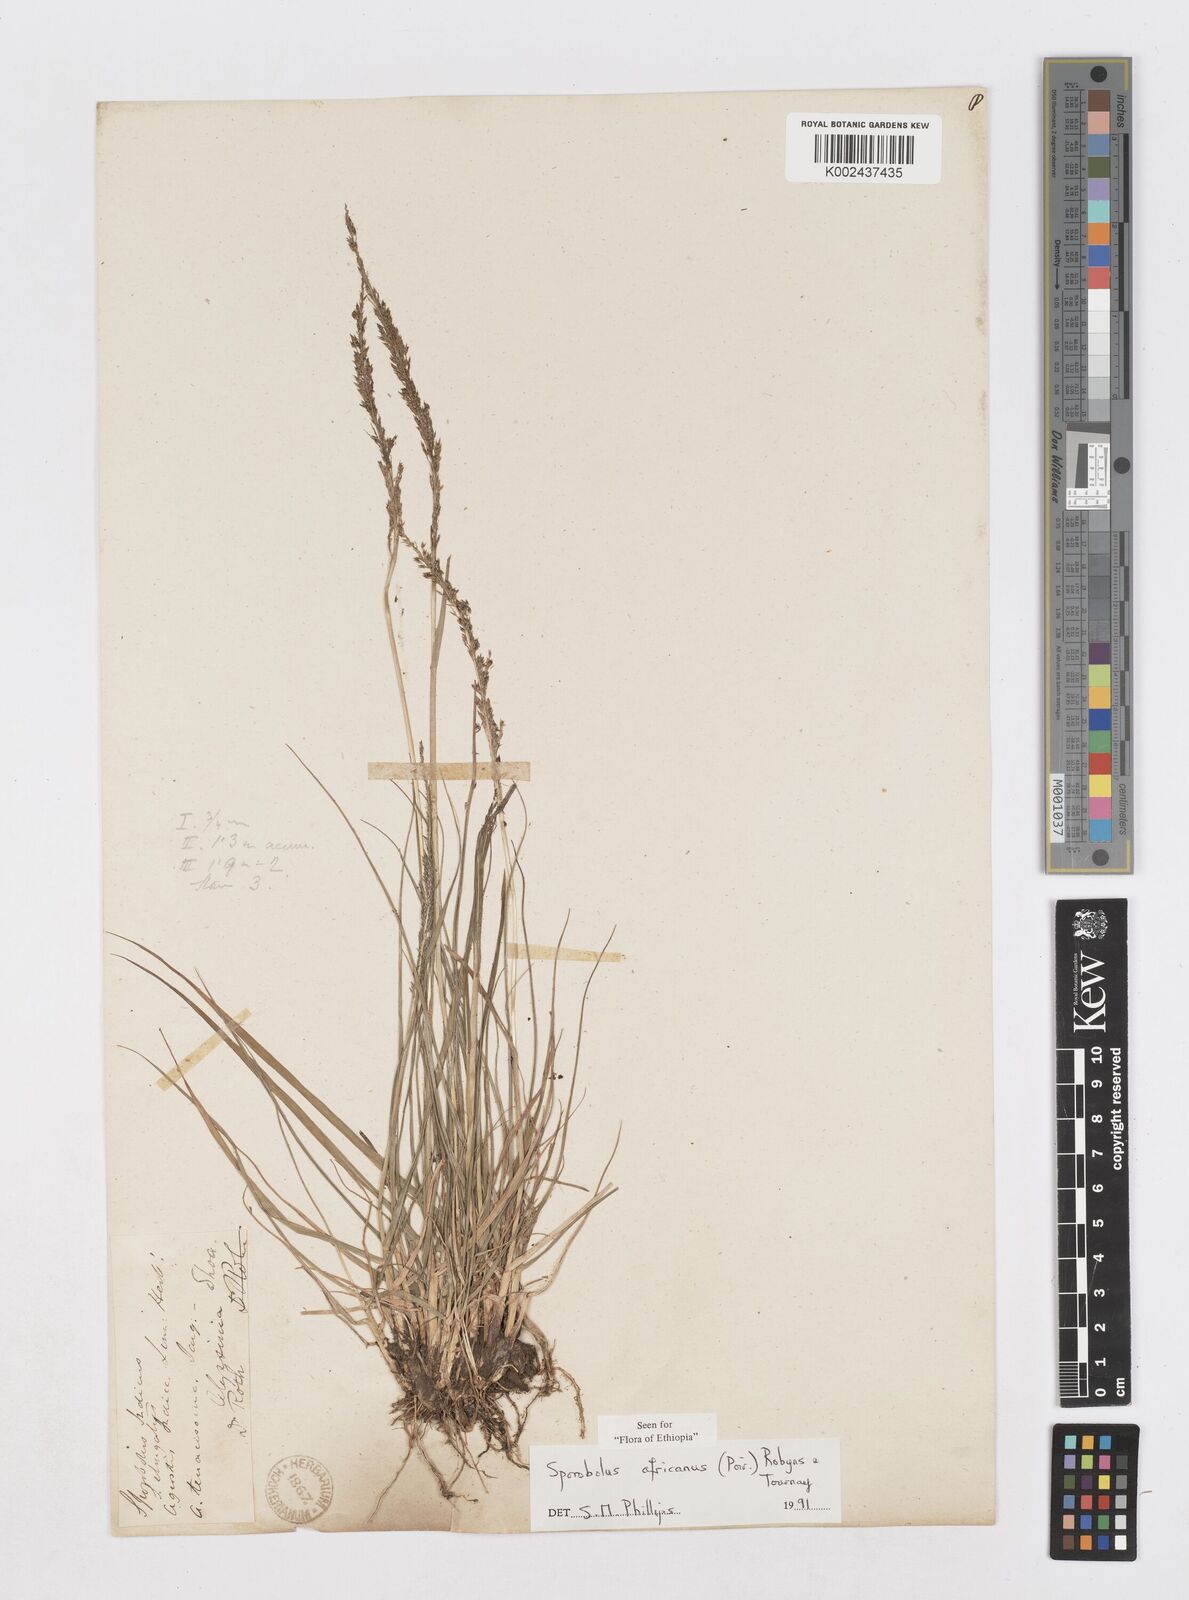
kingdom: Plantae
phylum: Tracheophyta
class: Liliopsida
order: Poales
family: Poaceae
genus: Sporobolus
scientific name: Sporobolus africanus
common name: African dropseed
